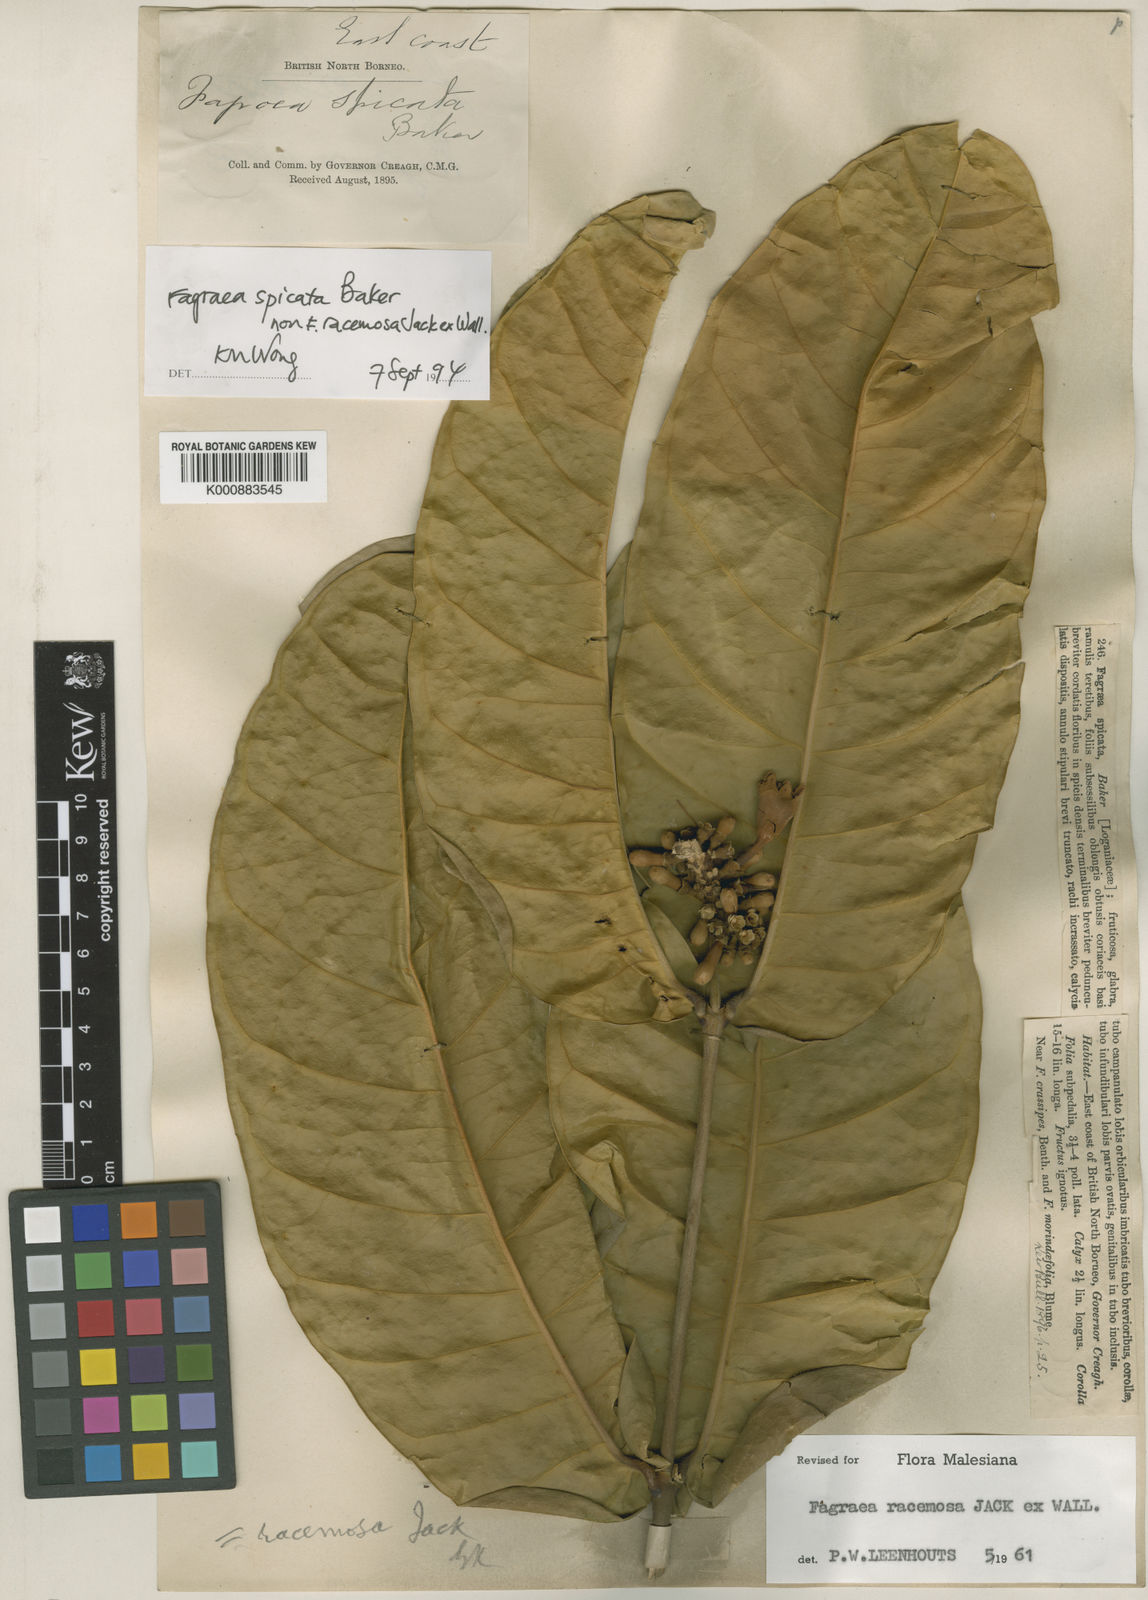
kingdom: Plantae
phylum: Tracheophyta
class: Magnoliopsida
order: Gentianales
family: Gentianaceae
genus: Utania
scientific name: Utania spicata
